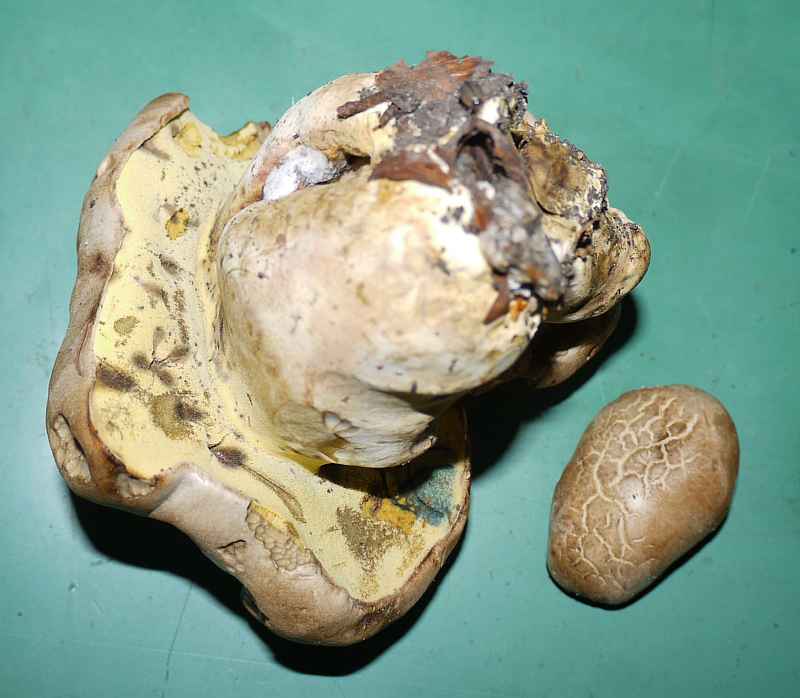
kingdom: Fungi
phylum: Basidiomycota
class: Agaricomycetes
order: Boletales
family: Boletaceae
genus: Caloboletus
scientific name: Caloboletus radicans
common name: rod-rørhat
